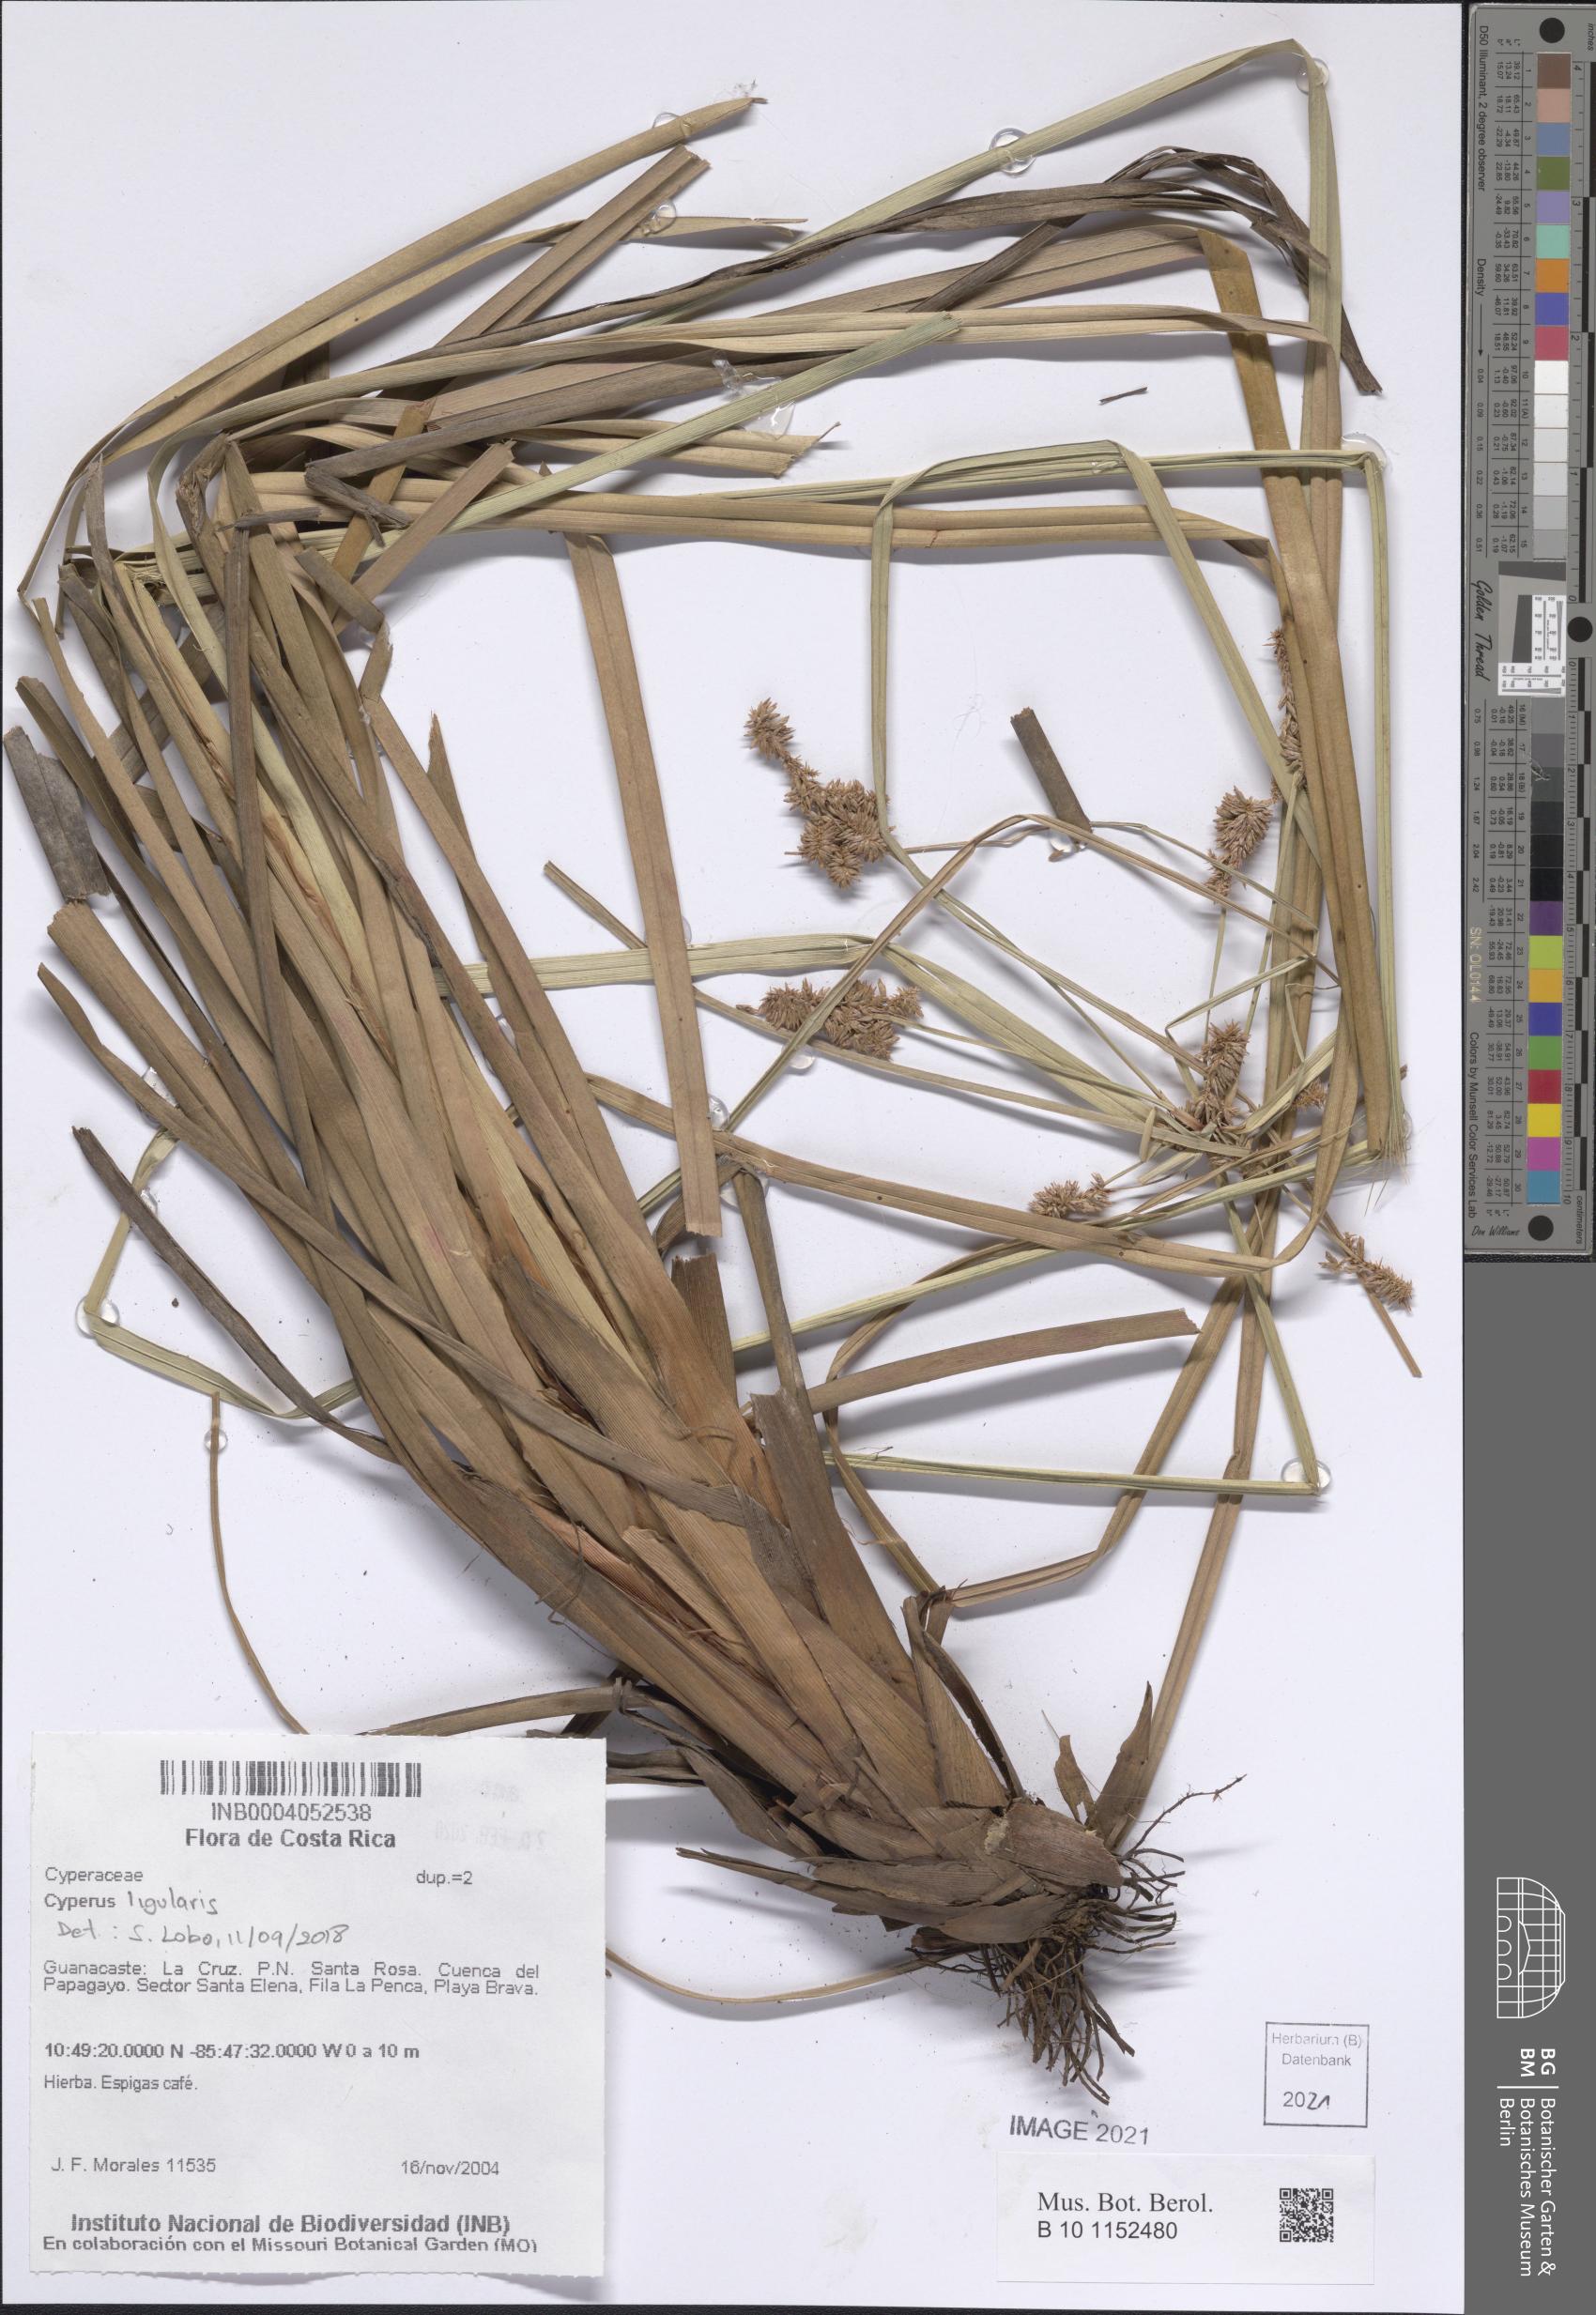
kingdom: Plantae
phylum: Tracheophyta
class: Liliopsida
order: Poales
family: Cyperaceae
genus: Cyperus
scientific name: Cyperus
